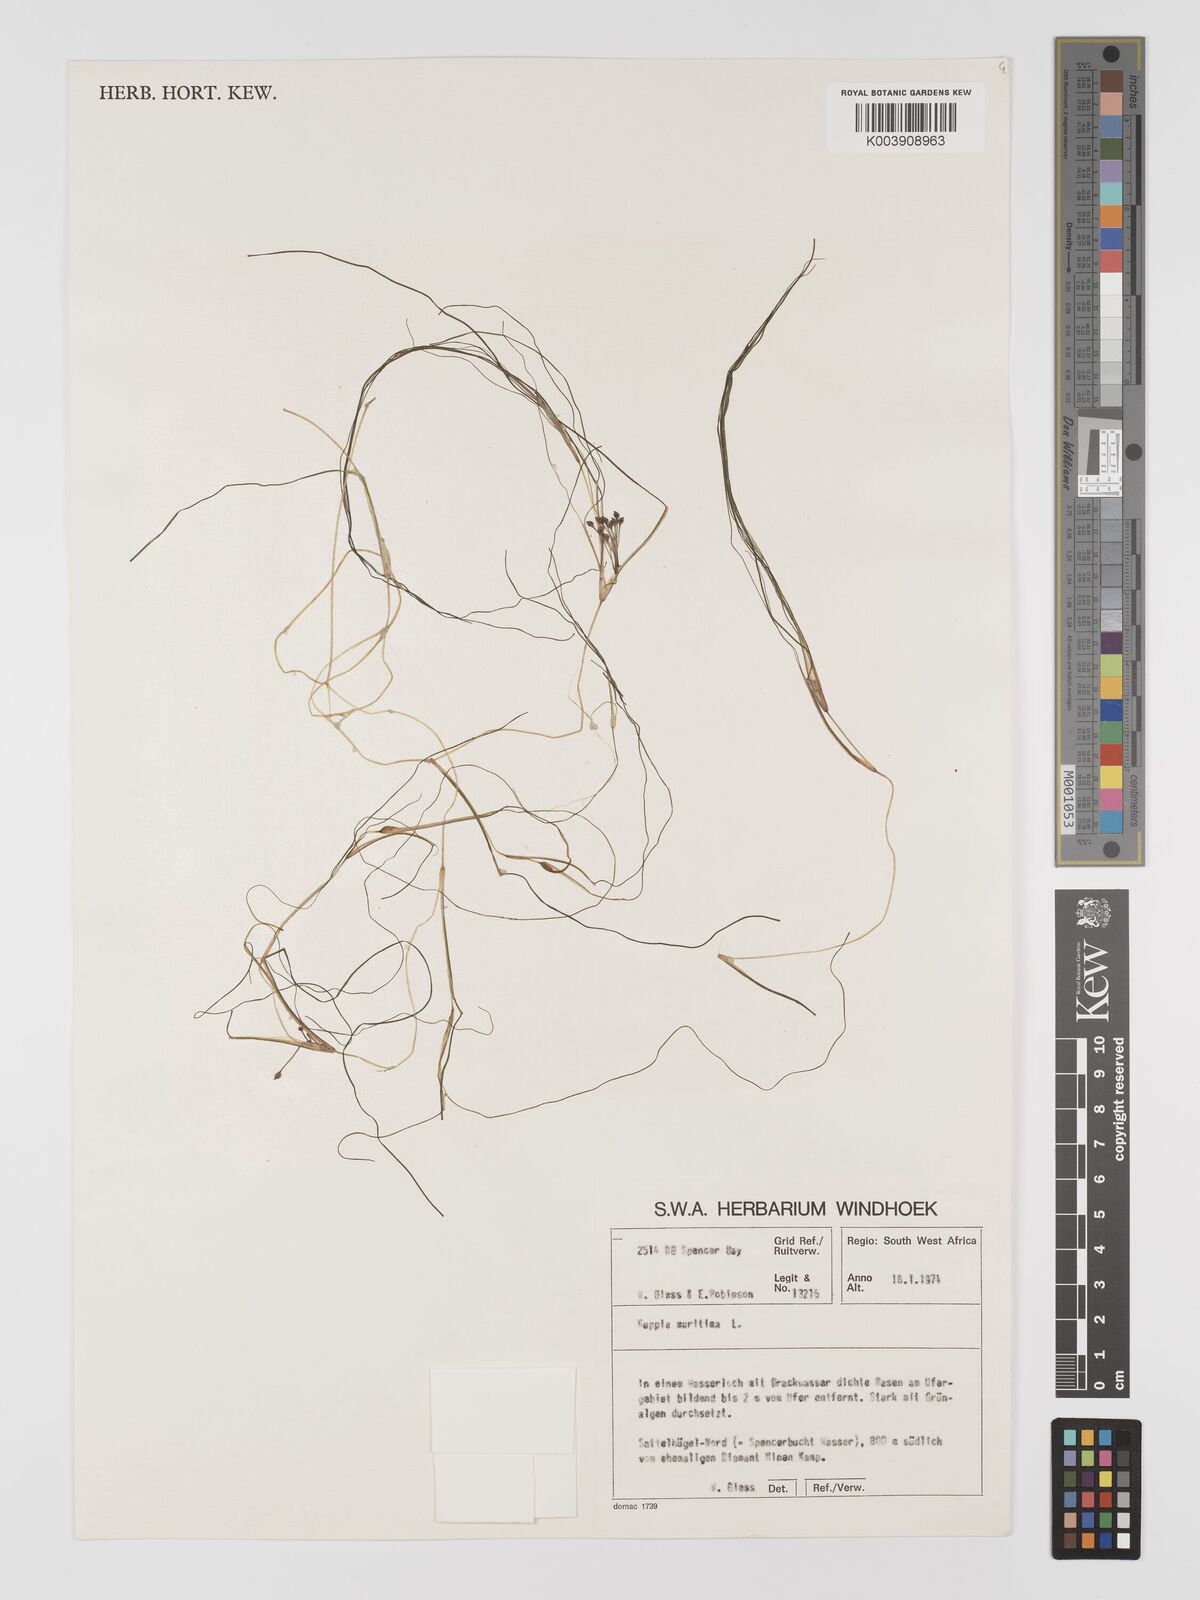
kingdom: Plantae
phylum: Tracheophyta
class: Liliopsida
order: Alismatales
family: Ruppiaceae
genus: Ruppia
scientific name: Ruppia maritima
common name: Beaked tasselweed
